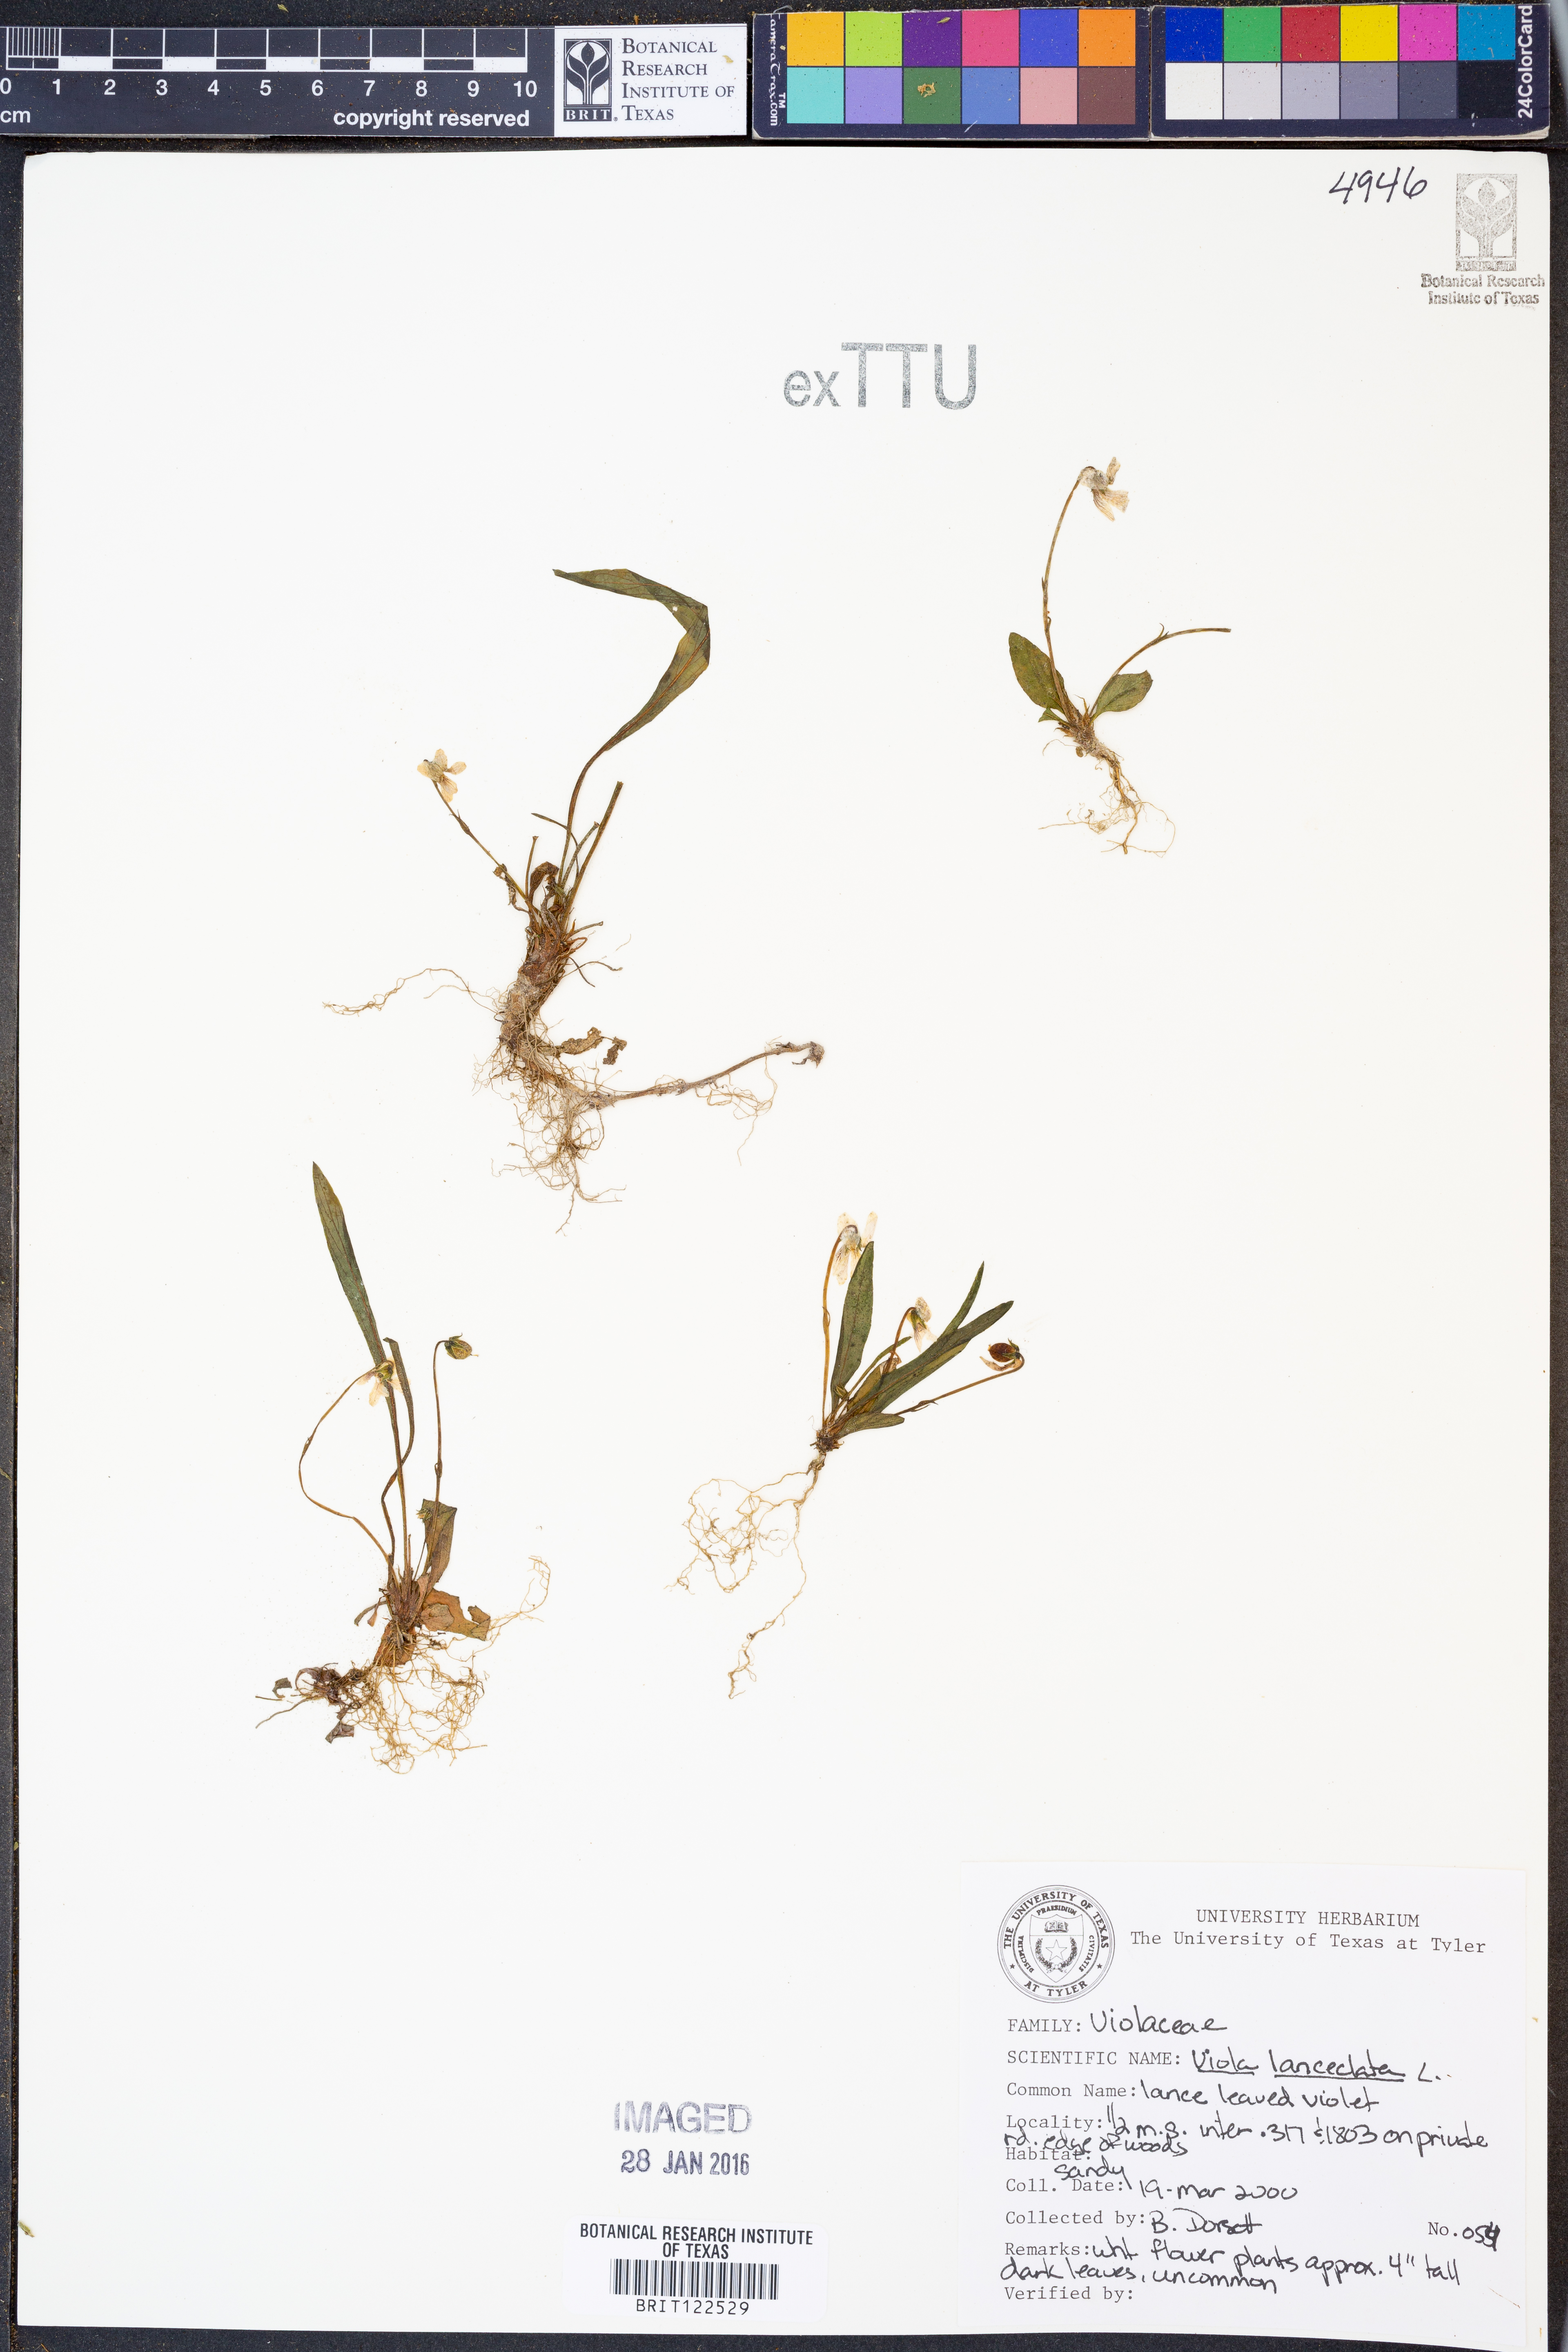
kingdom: Plantae
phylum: Tracheophyta
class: Magnoliopsida
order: Malpighiales
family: Violaceae
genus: Viola
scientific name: Viola lanceolata
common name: Bog white violet
